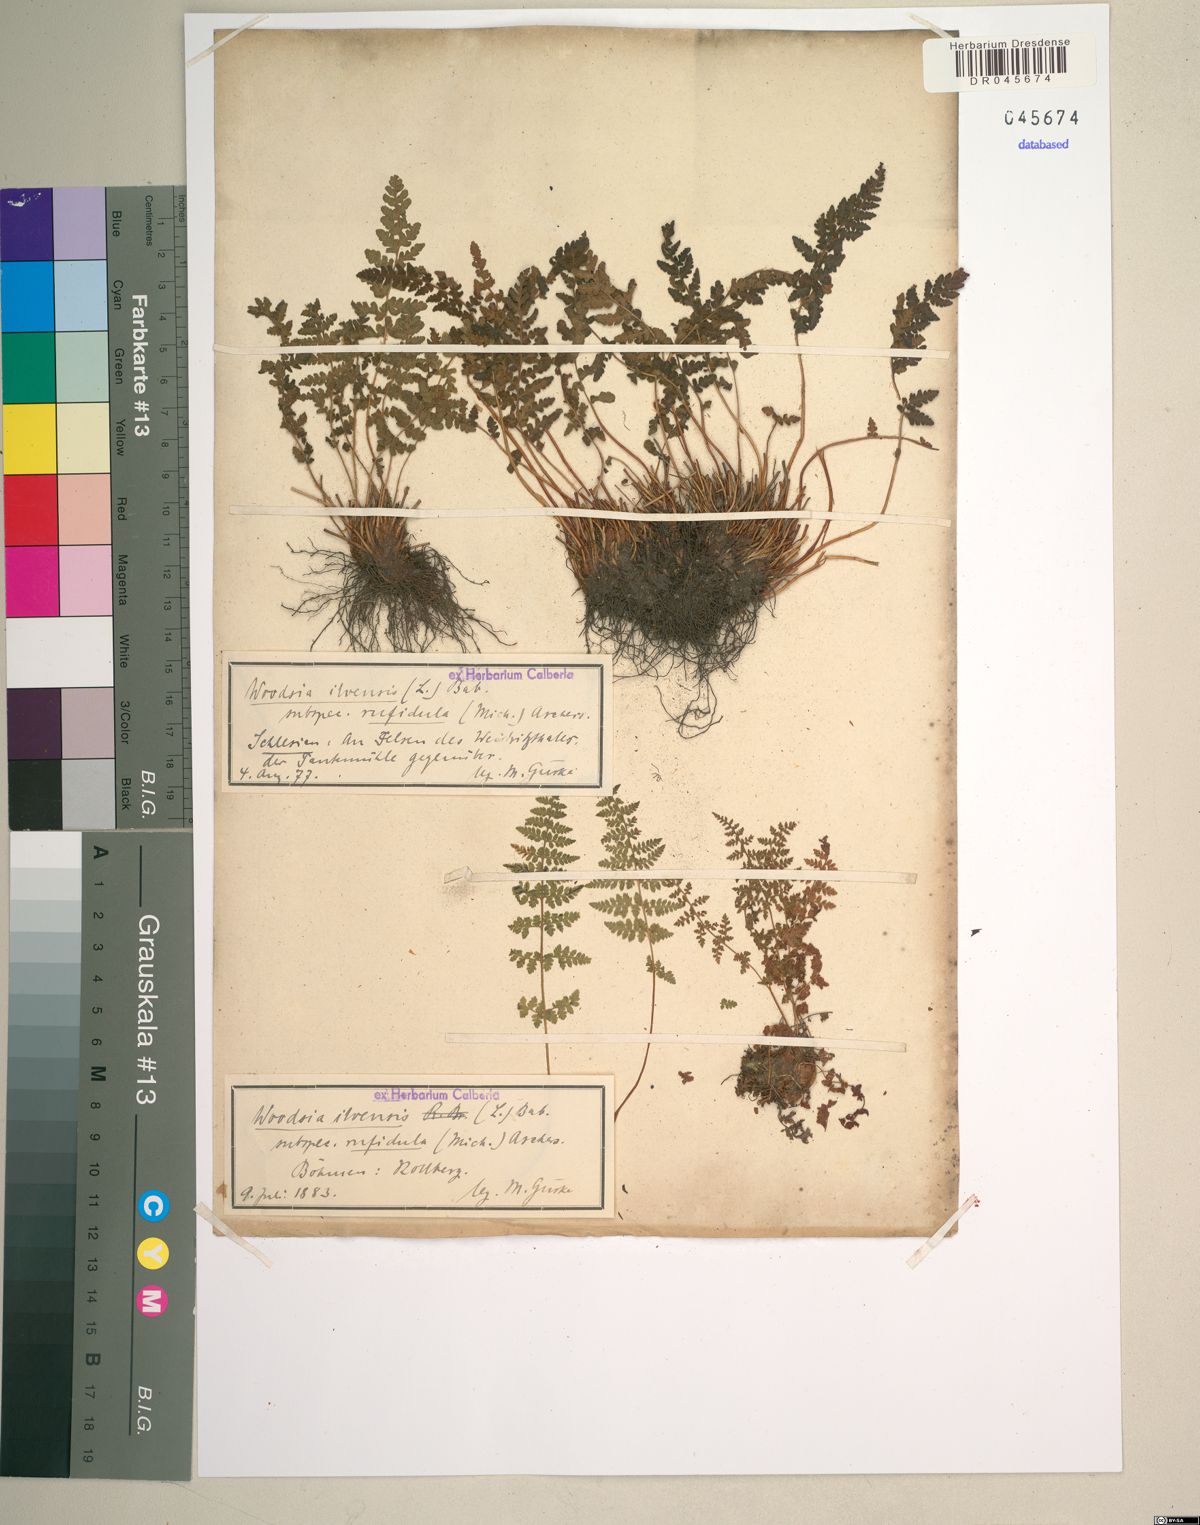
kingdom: Plantae
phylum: Tracheophyta
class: Polypodiopsida
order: Polypodiales
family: Woodsiaceae
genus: Woodsia
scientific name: Woodsia ilvensis
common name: Fragrant woodsia
